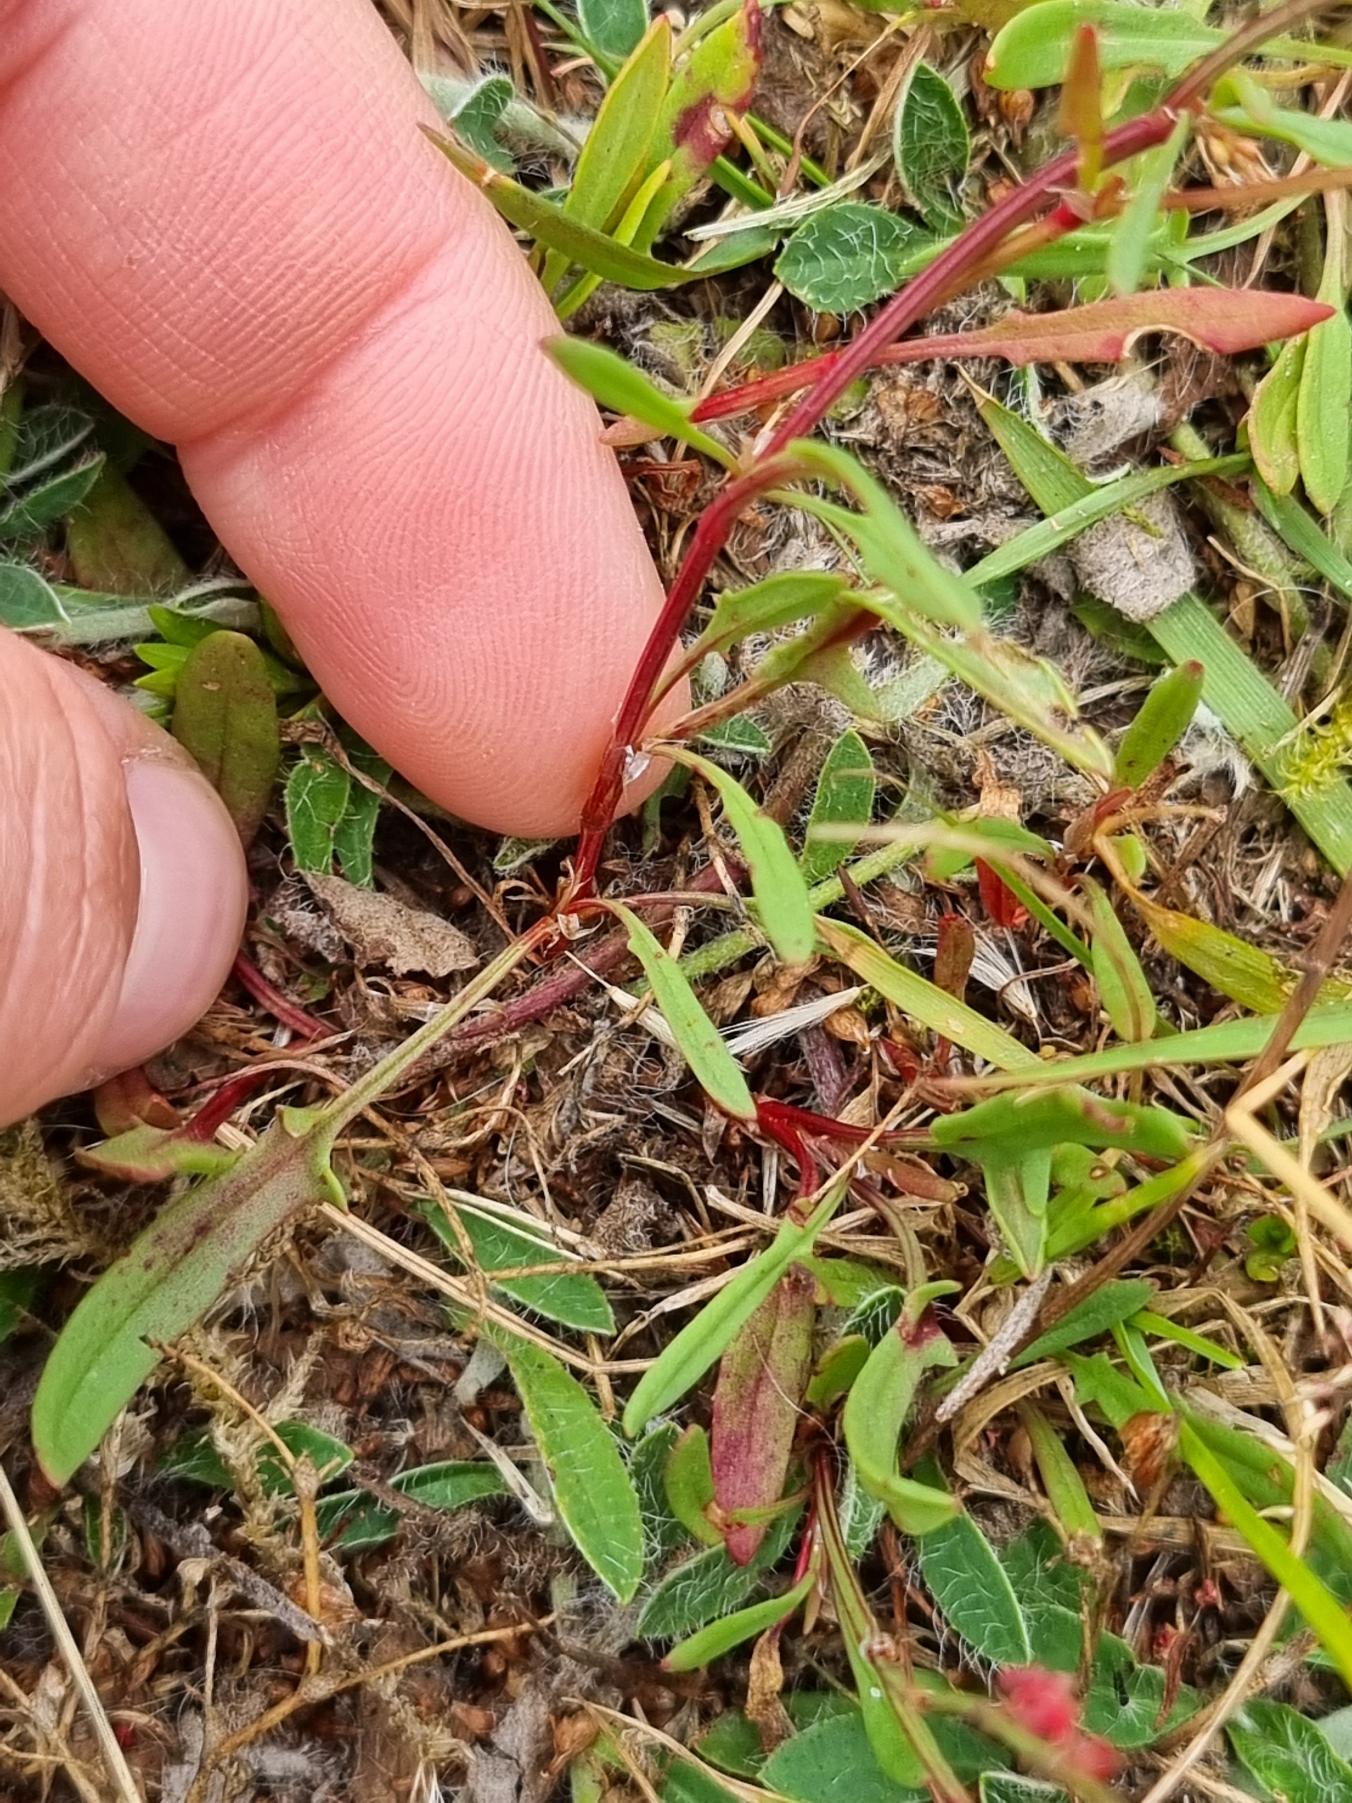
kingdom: Plantae
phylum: Tracheophyta
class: Magnoliopsida
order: Caryophyllales
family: Polygonaceae
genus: Rumex
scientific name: Rumex acetosella
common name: Rødknæ
